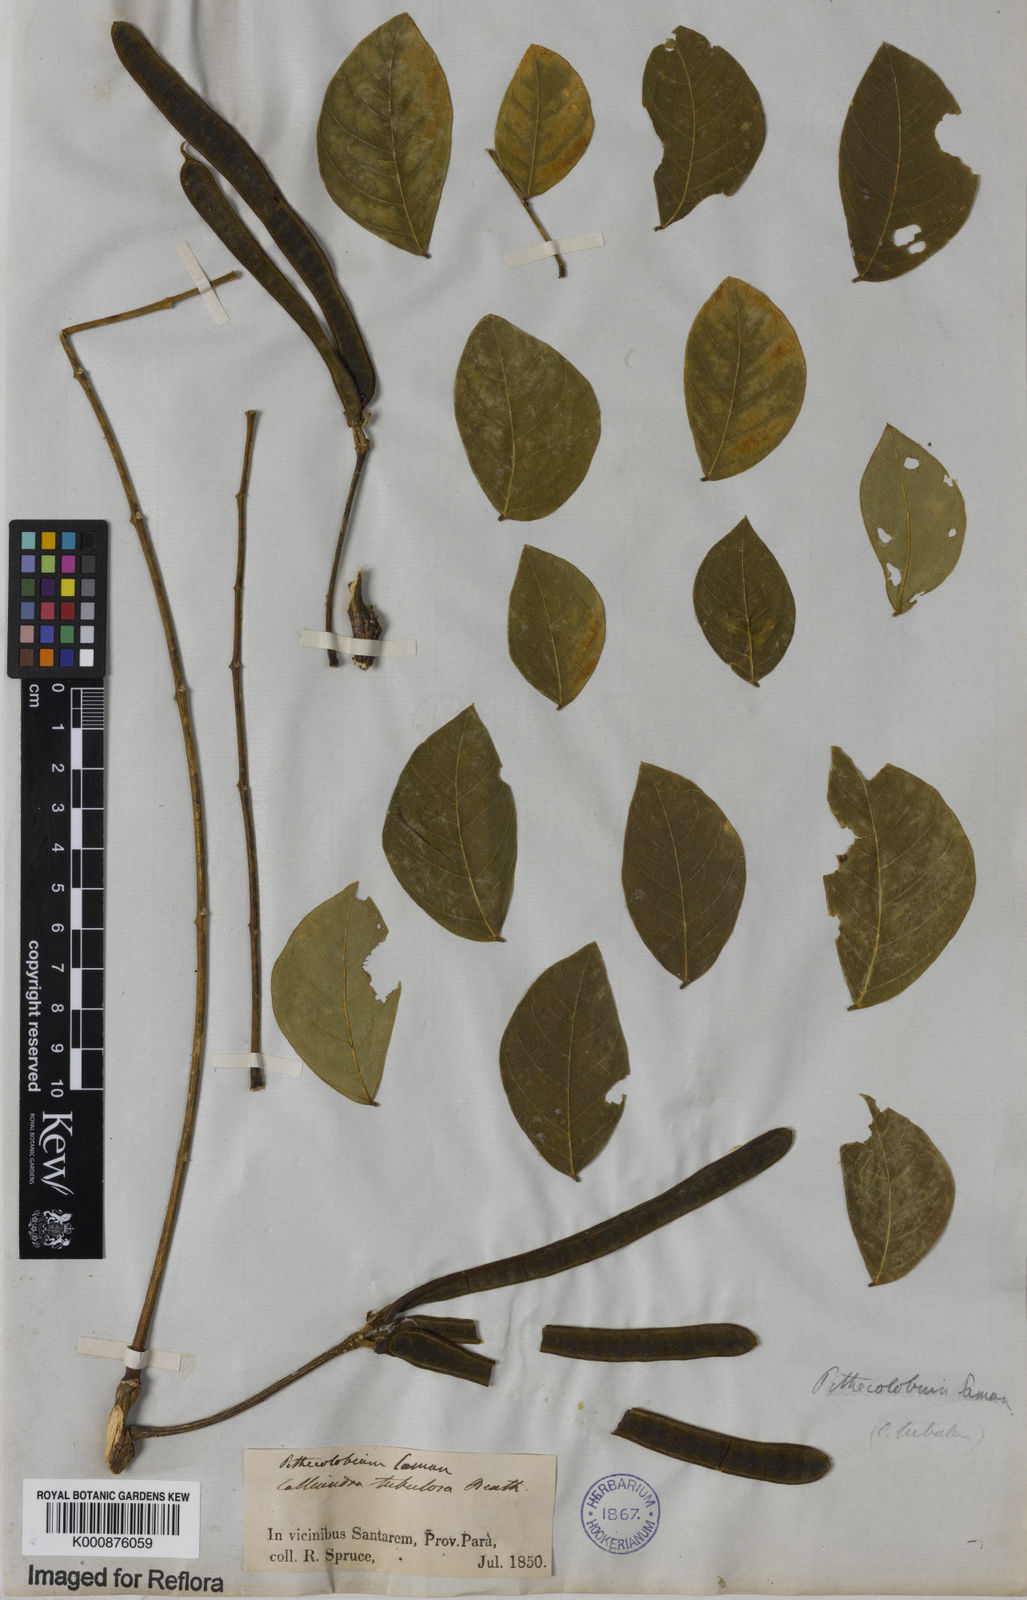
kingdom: Plantae
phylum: Tracheophyta
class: Magnoliopsida
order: Fabales
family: Fabaceae
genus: Samanea
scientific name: Samanea tubulosa
